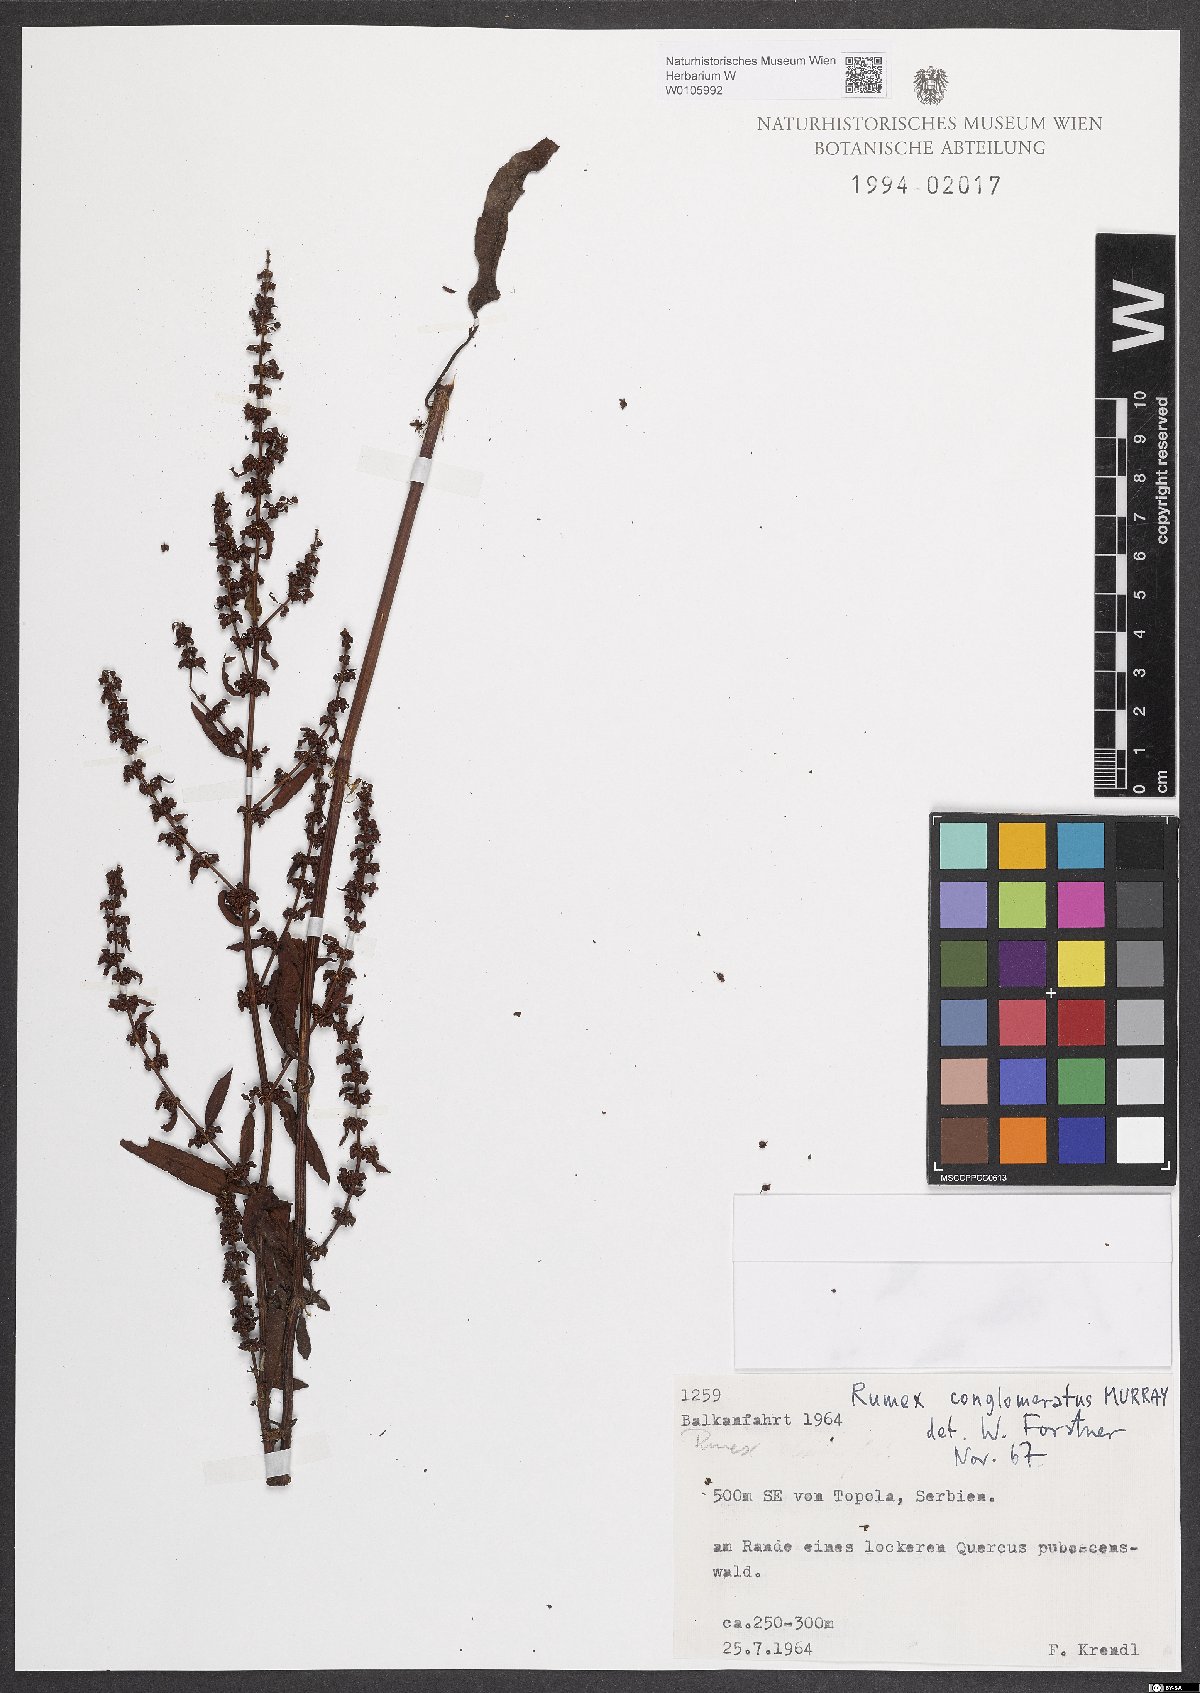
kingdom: Plantae
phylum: Tracheophyta
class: Magnoliopsida
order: Caryophyllales
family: Polygonaceae
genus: Rumex
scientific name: Rumex conglomeratus
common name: Clustered dock
